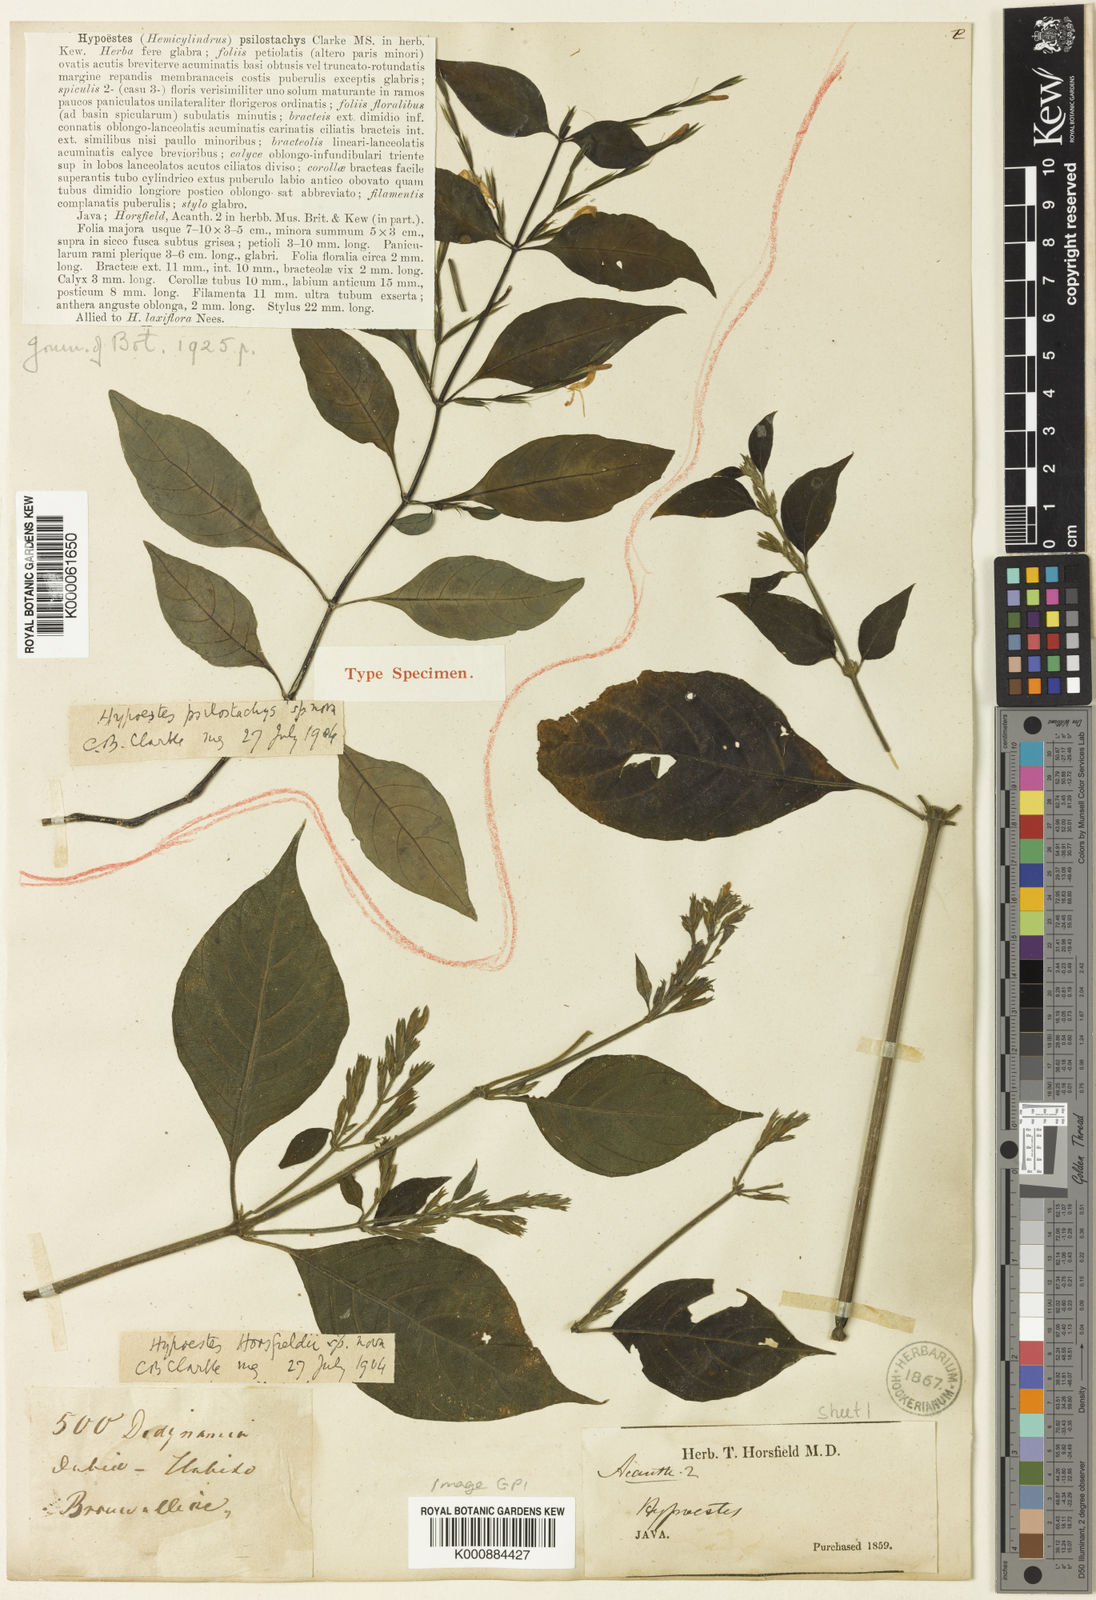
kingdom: Plantae
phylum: Tracheophyta
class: Magnoliopsida
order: Lamiales
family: Acanthaceae
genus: Hypoestes
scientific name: Hypoestes psilochlamys
